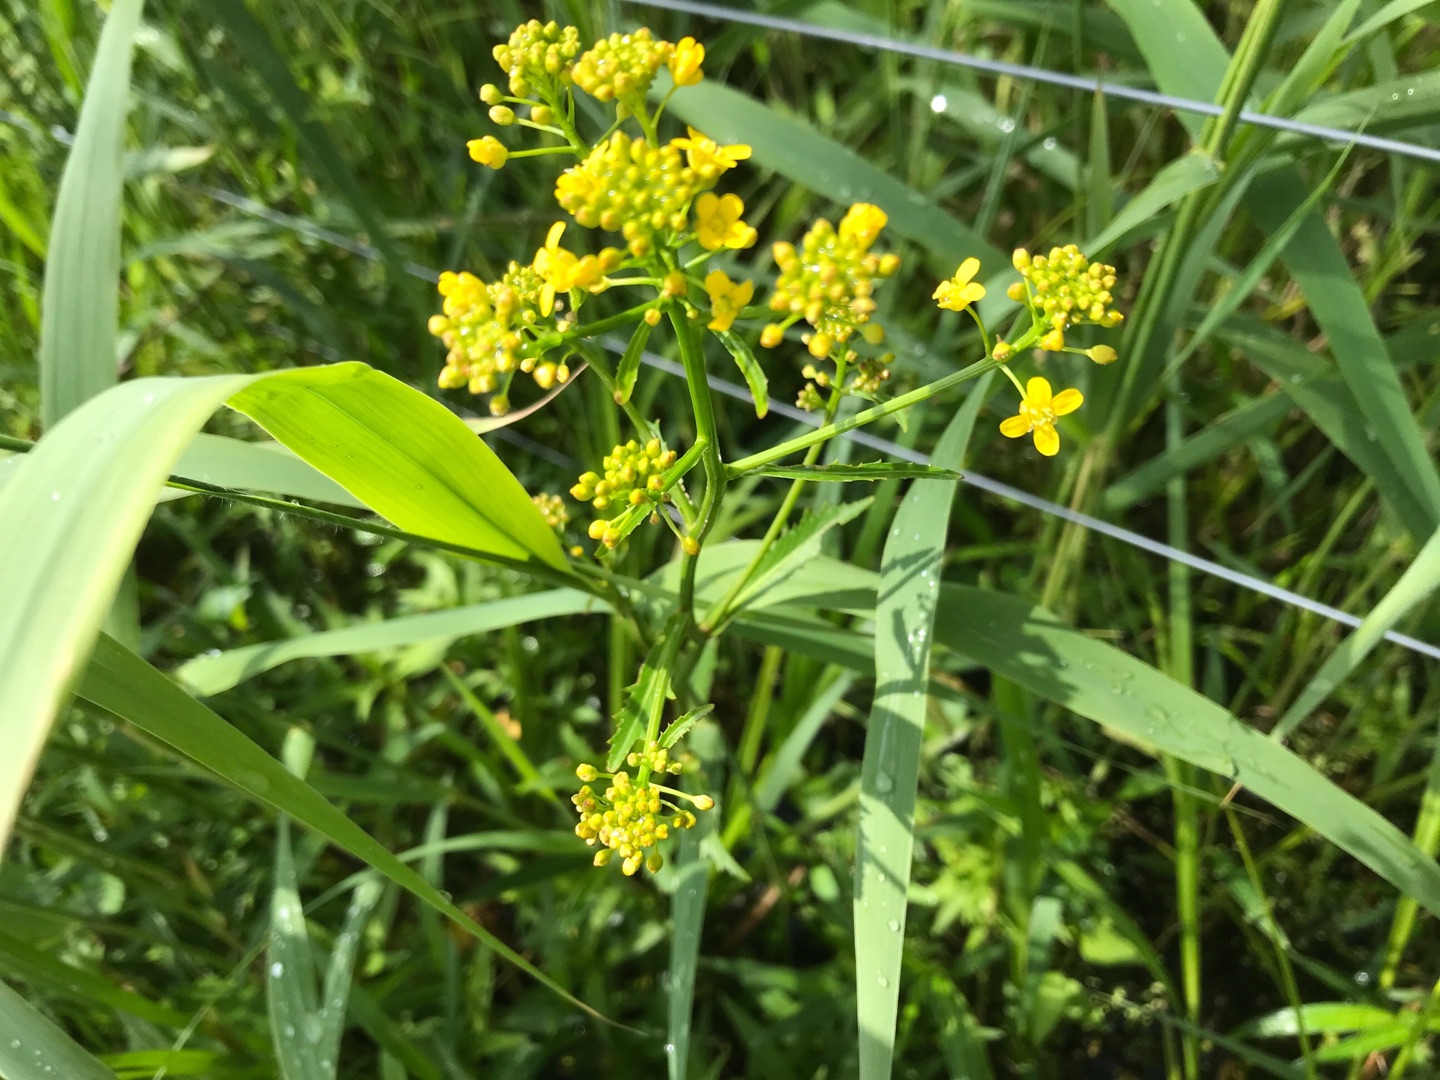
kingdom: Plantae
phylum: Tracheophyta
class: Magnoliopsida
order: Brassicales
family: Brassicaceae
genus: Rorippa
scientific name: Rorippa amphibia
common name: Vandpeberrod
